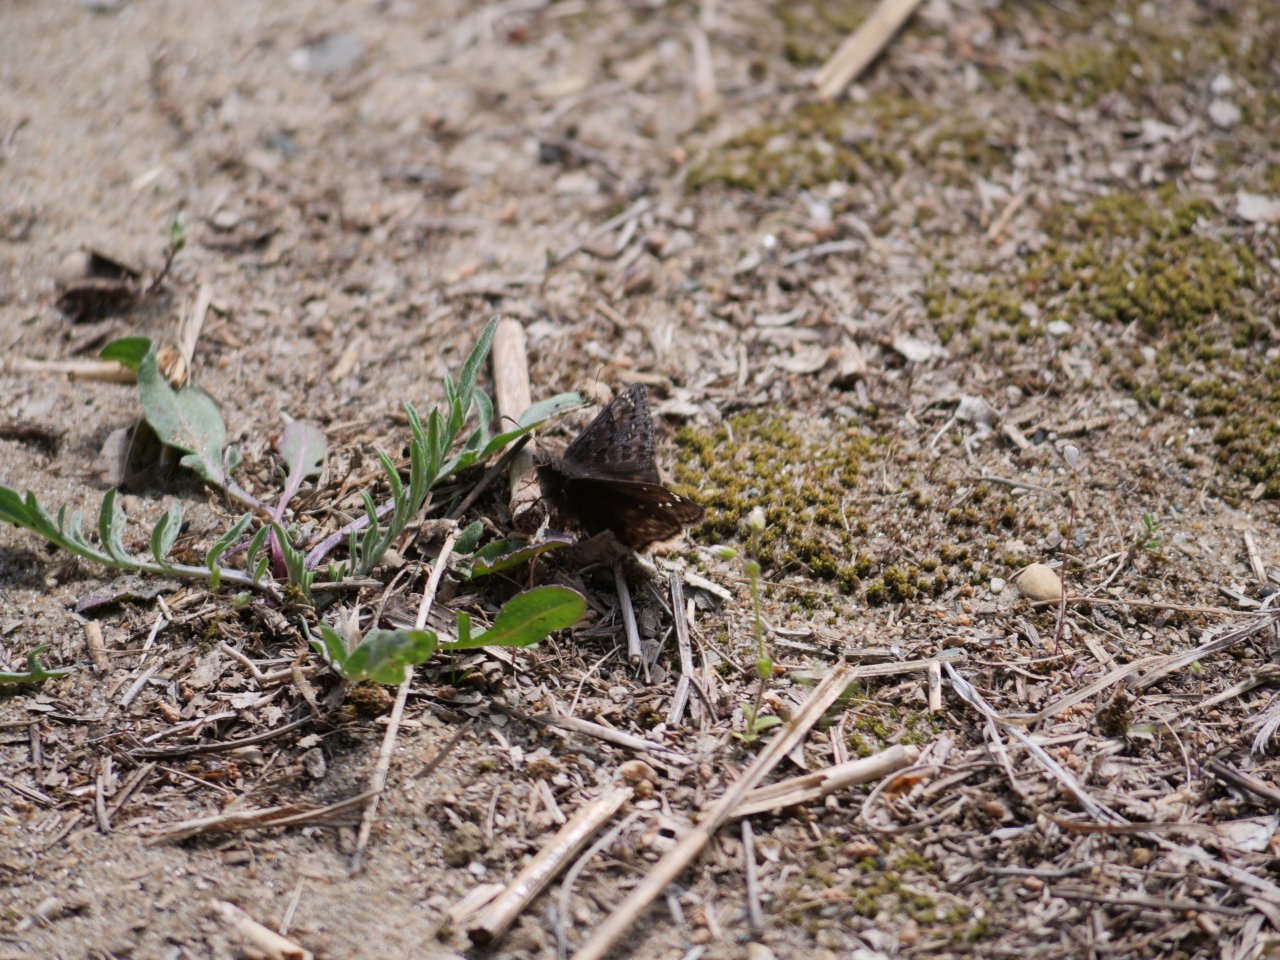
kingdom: Animalia
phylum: Arthropoda
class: Insecta
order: Lepidoptera
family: Hesperiidae
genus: Erynnis
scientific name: Erynnis
